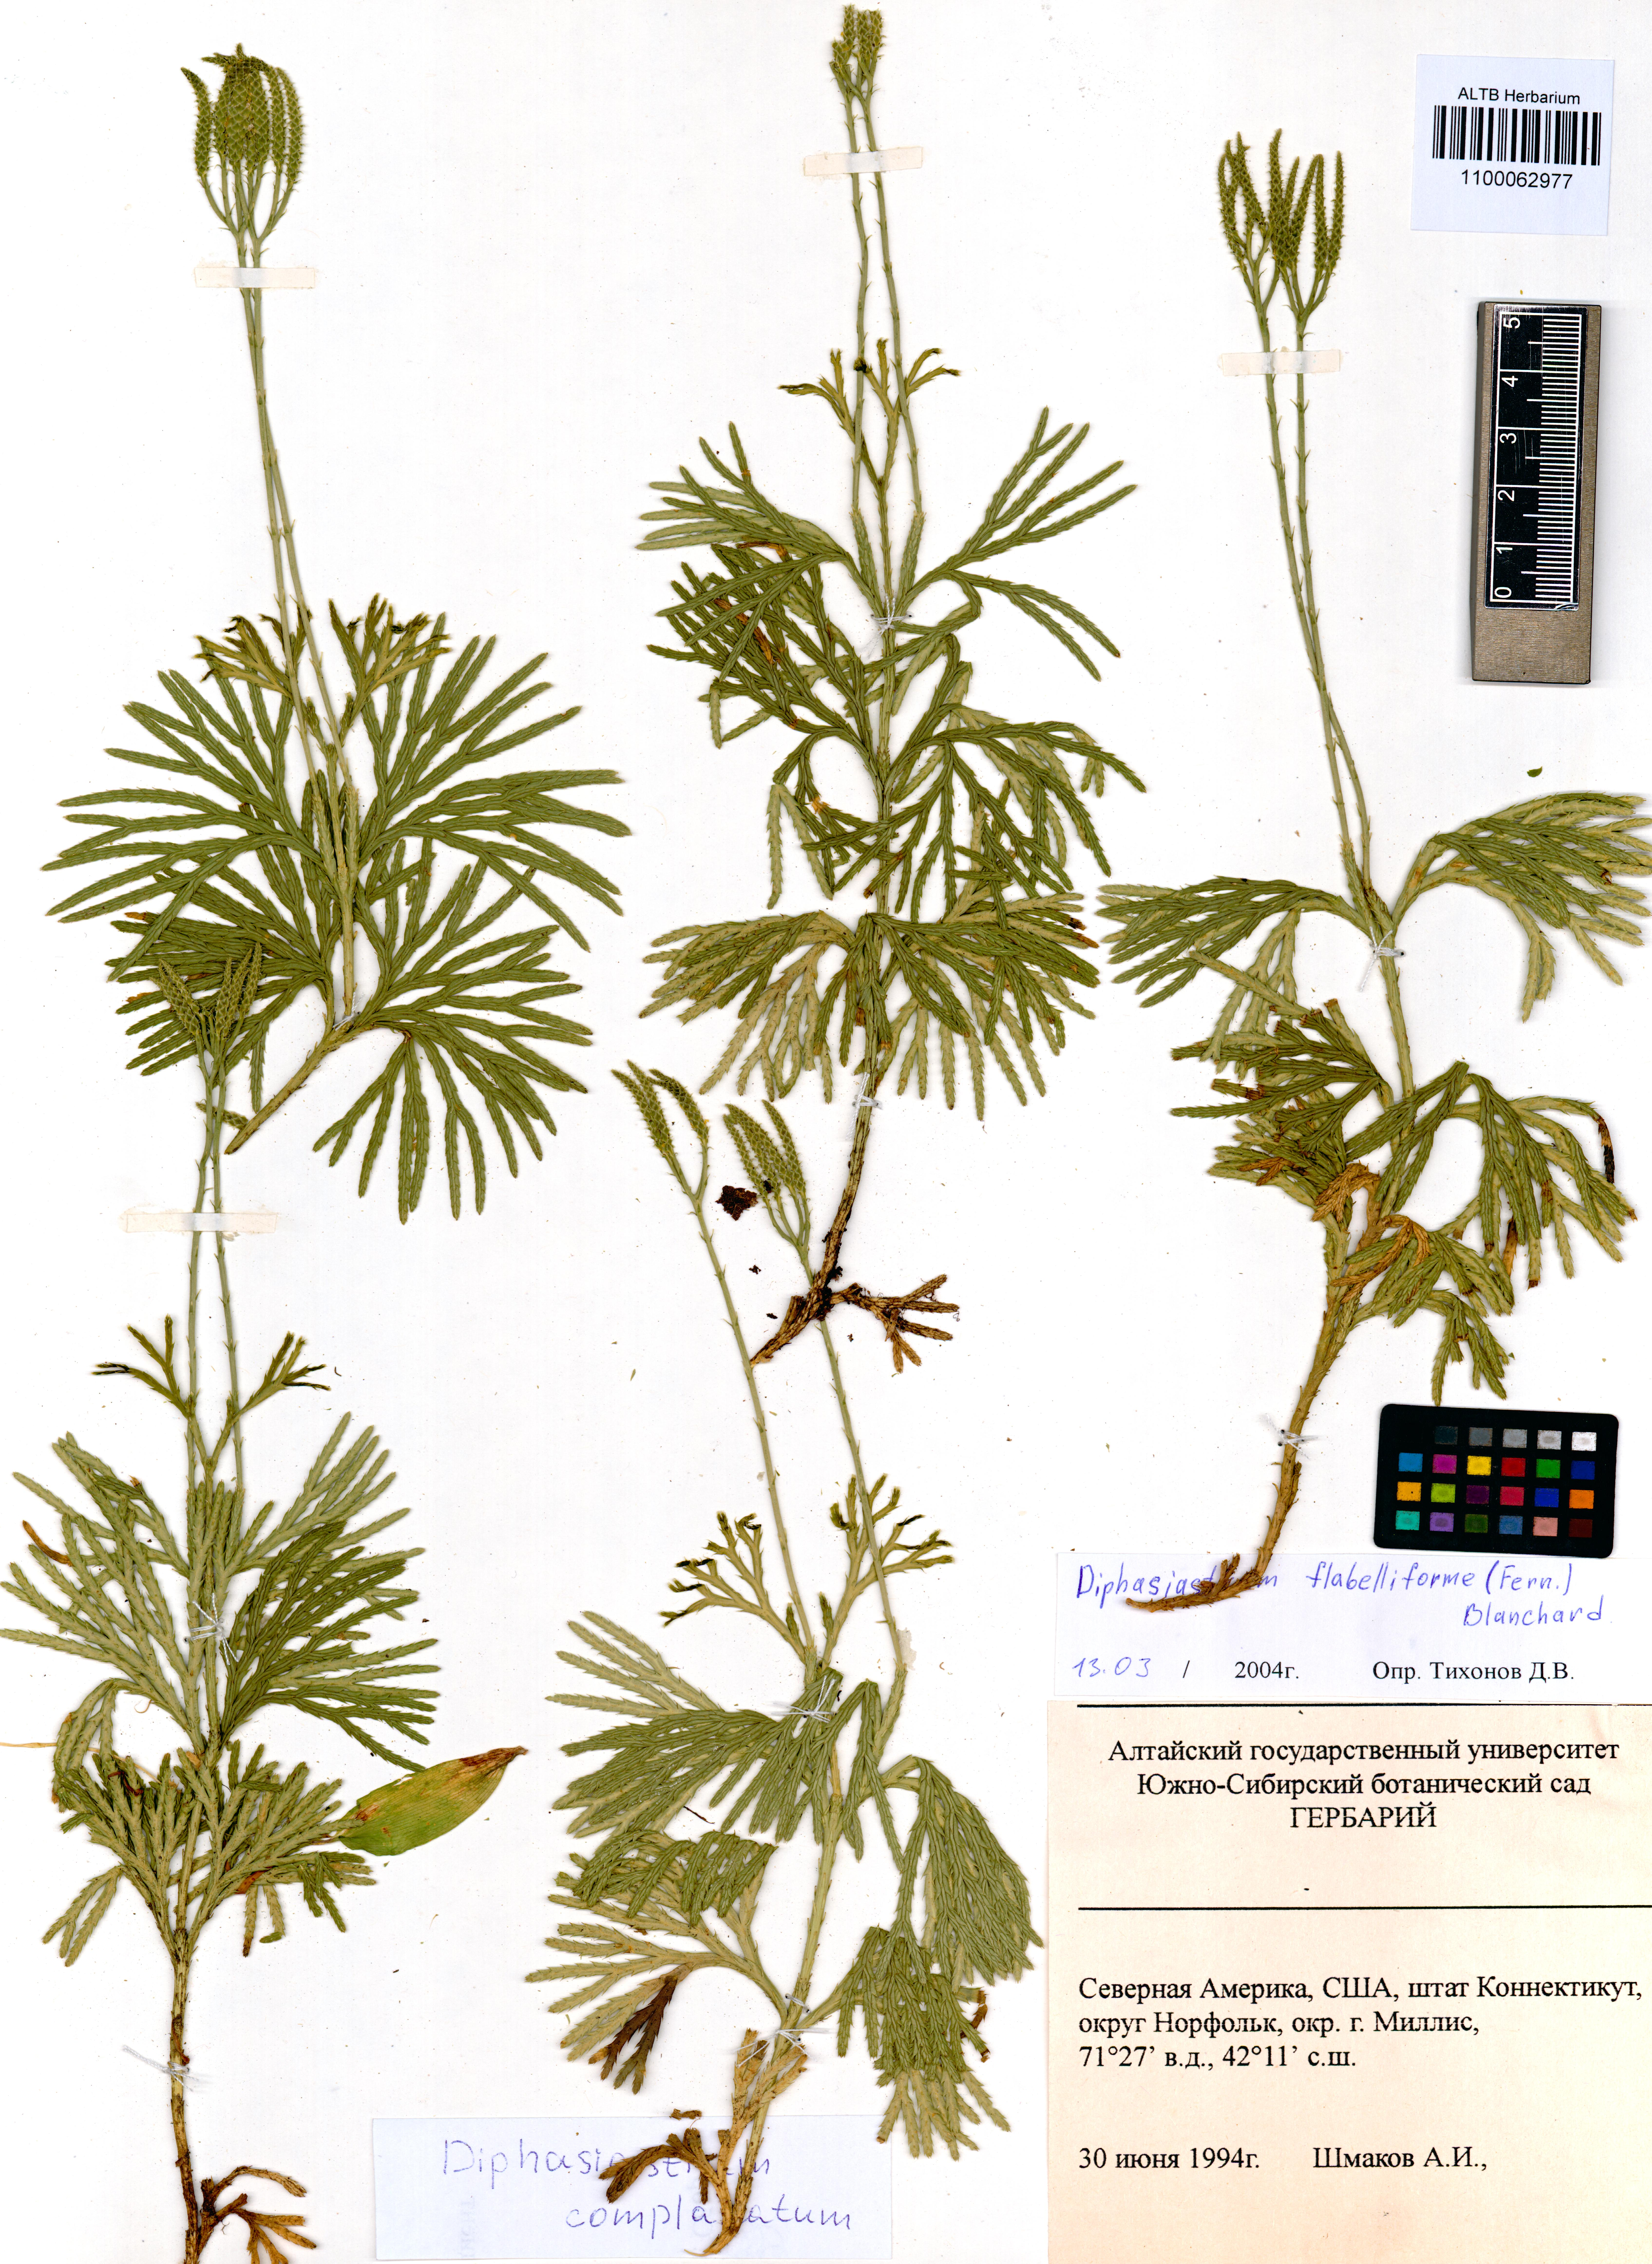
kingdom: Plantae
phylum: Tracheophyta
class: Lycopodiopsida
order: Lycopodiales
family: Lycopodiaceae
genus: Diphasiastrum
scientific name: Diphasiastrum complanatum
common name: Northern running-pine
